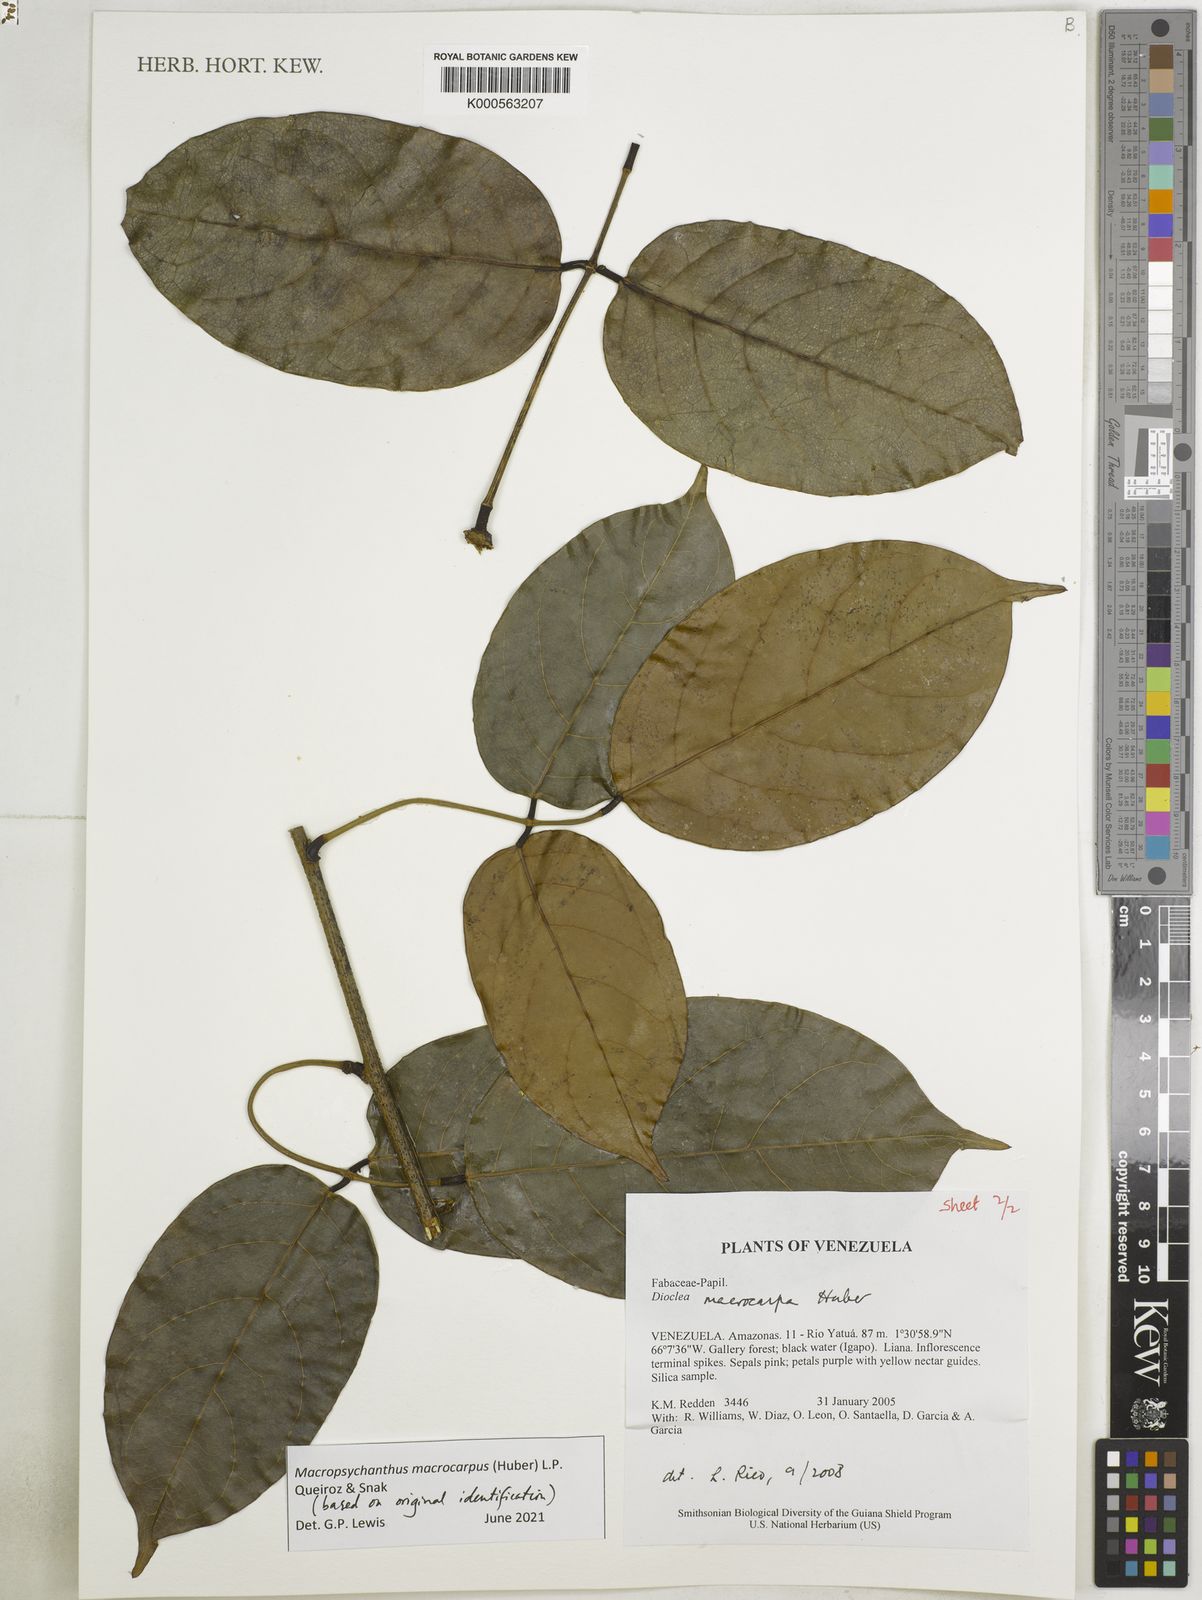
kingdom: Plantae
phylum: Tracheophyta
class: Magnoliopsida
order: Fabales
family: Fabaceae
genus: Macropsychanthus
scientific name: Macropsychanthus macrocarpus
